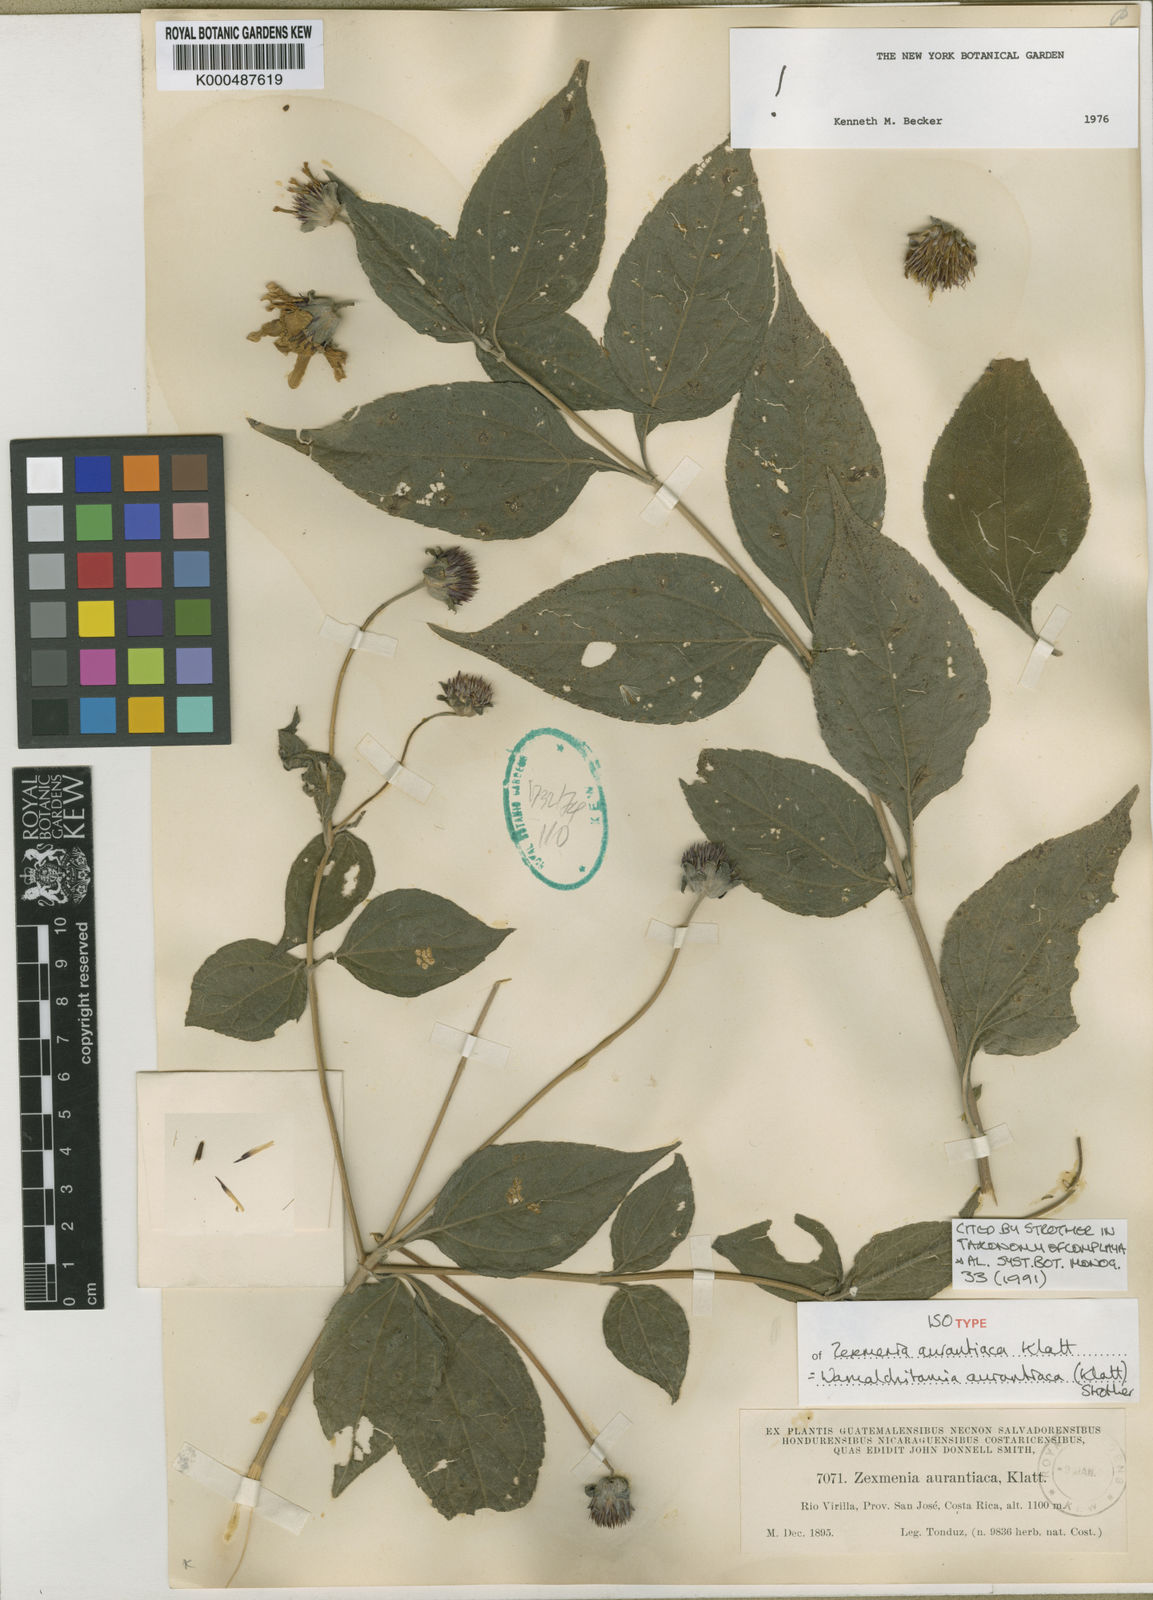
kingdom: Plantae
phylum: Tracheophyta
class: Magnoliopsida
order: Asterales
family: Asteraceae
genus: Wamalchitamia
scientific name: Wamalchitamia aurantiaca
